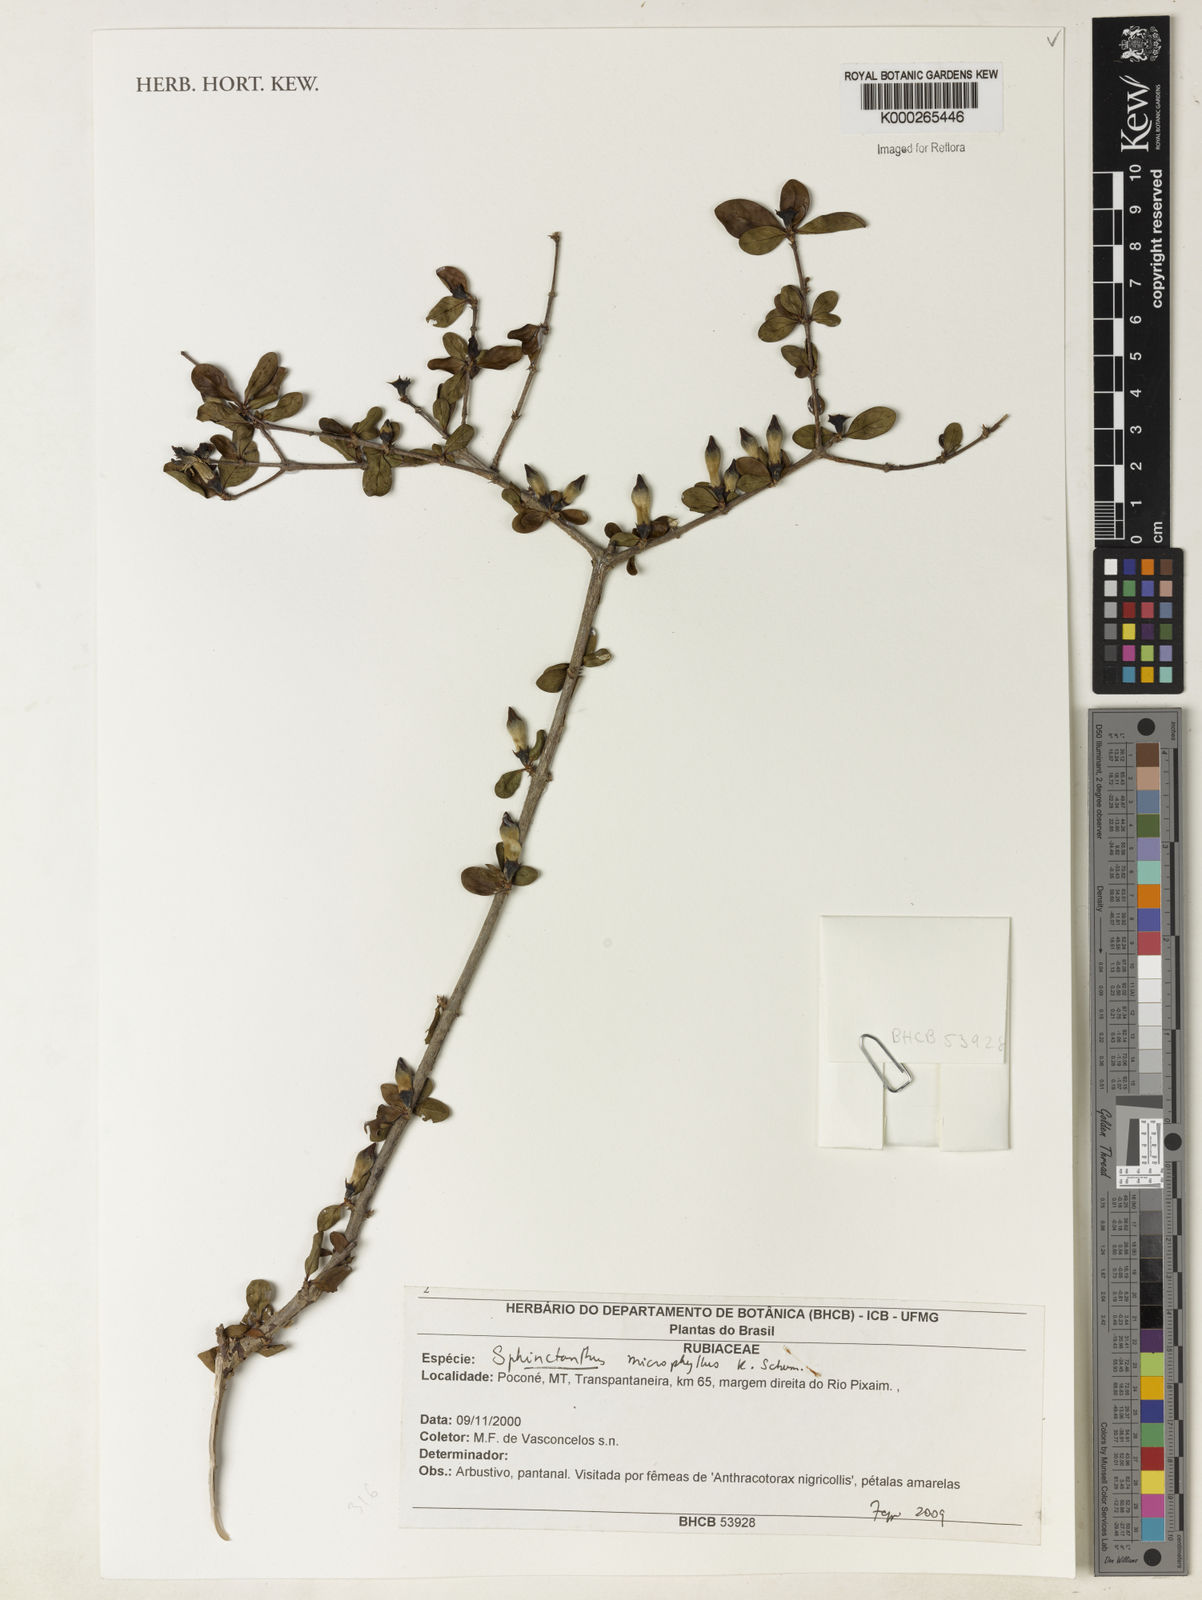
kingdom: Plantae
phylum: Tracheophyta
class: Magnoliopsida
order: Gentianales
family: Rubiaceae
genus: Sphinctanthus
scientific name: Sphinctanthus microphyllus
